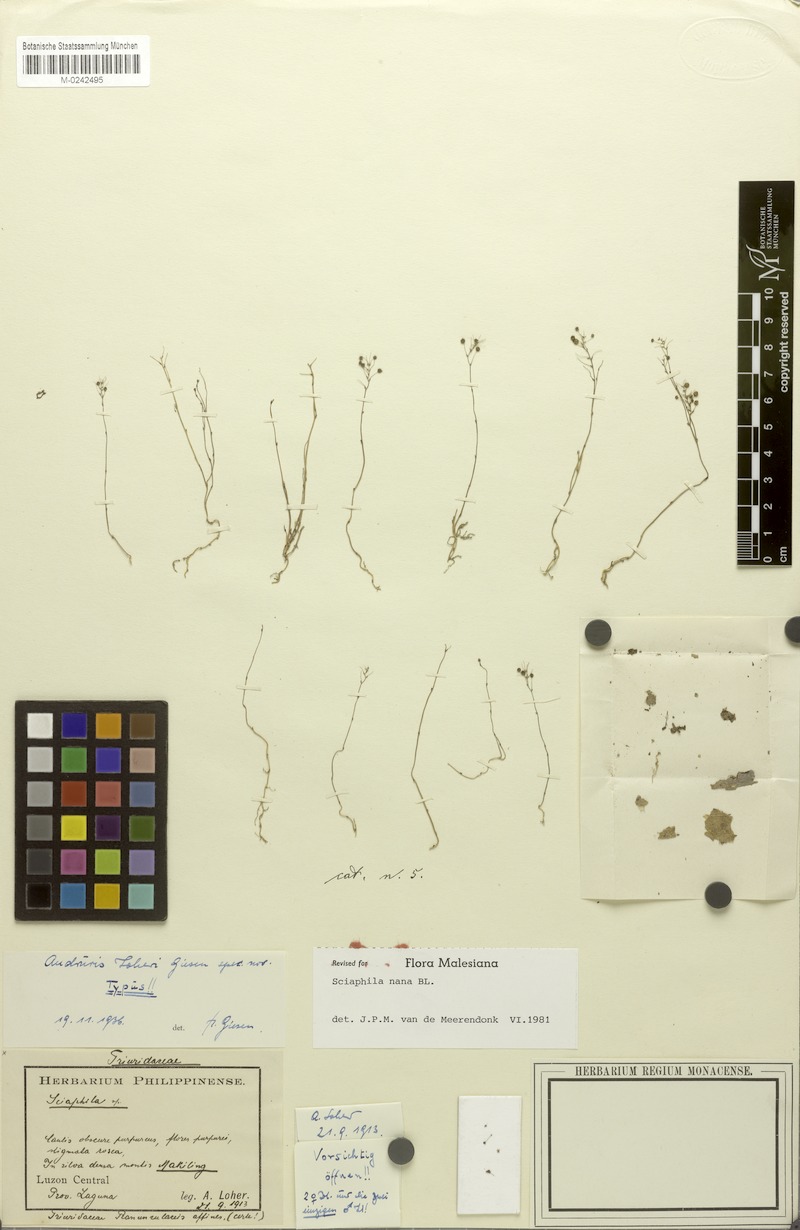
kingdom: Plantae
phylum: Tracheophyta
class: Liliopsida
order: Pandanales
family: Triuridaceae
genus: Sciaphila
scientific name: Sciaphila nana
